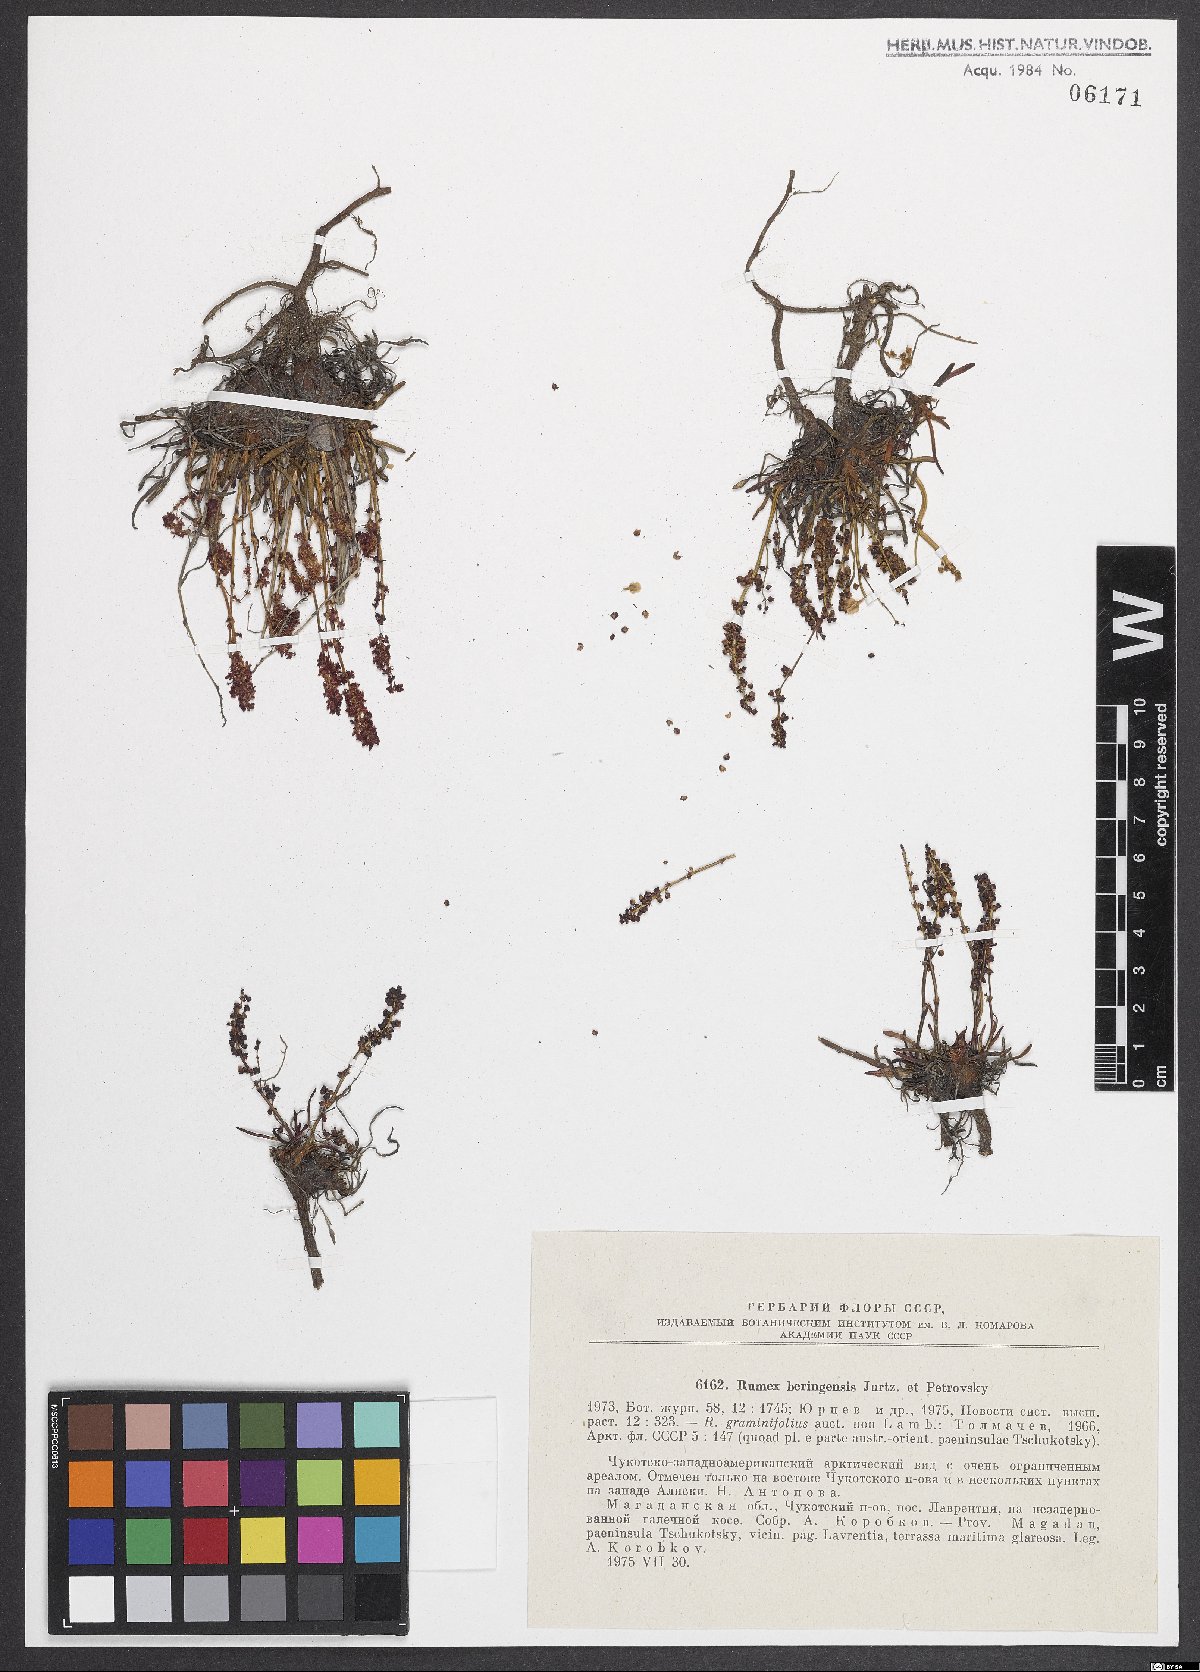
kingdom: Plantae
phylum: Tracheophyta
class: Magnoliopsida
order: Caryophyllales
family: Polygonaceae
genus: Rumex
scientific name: Rumex
